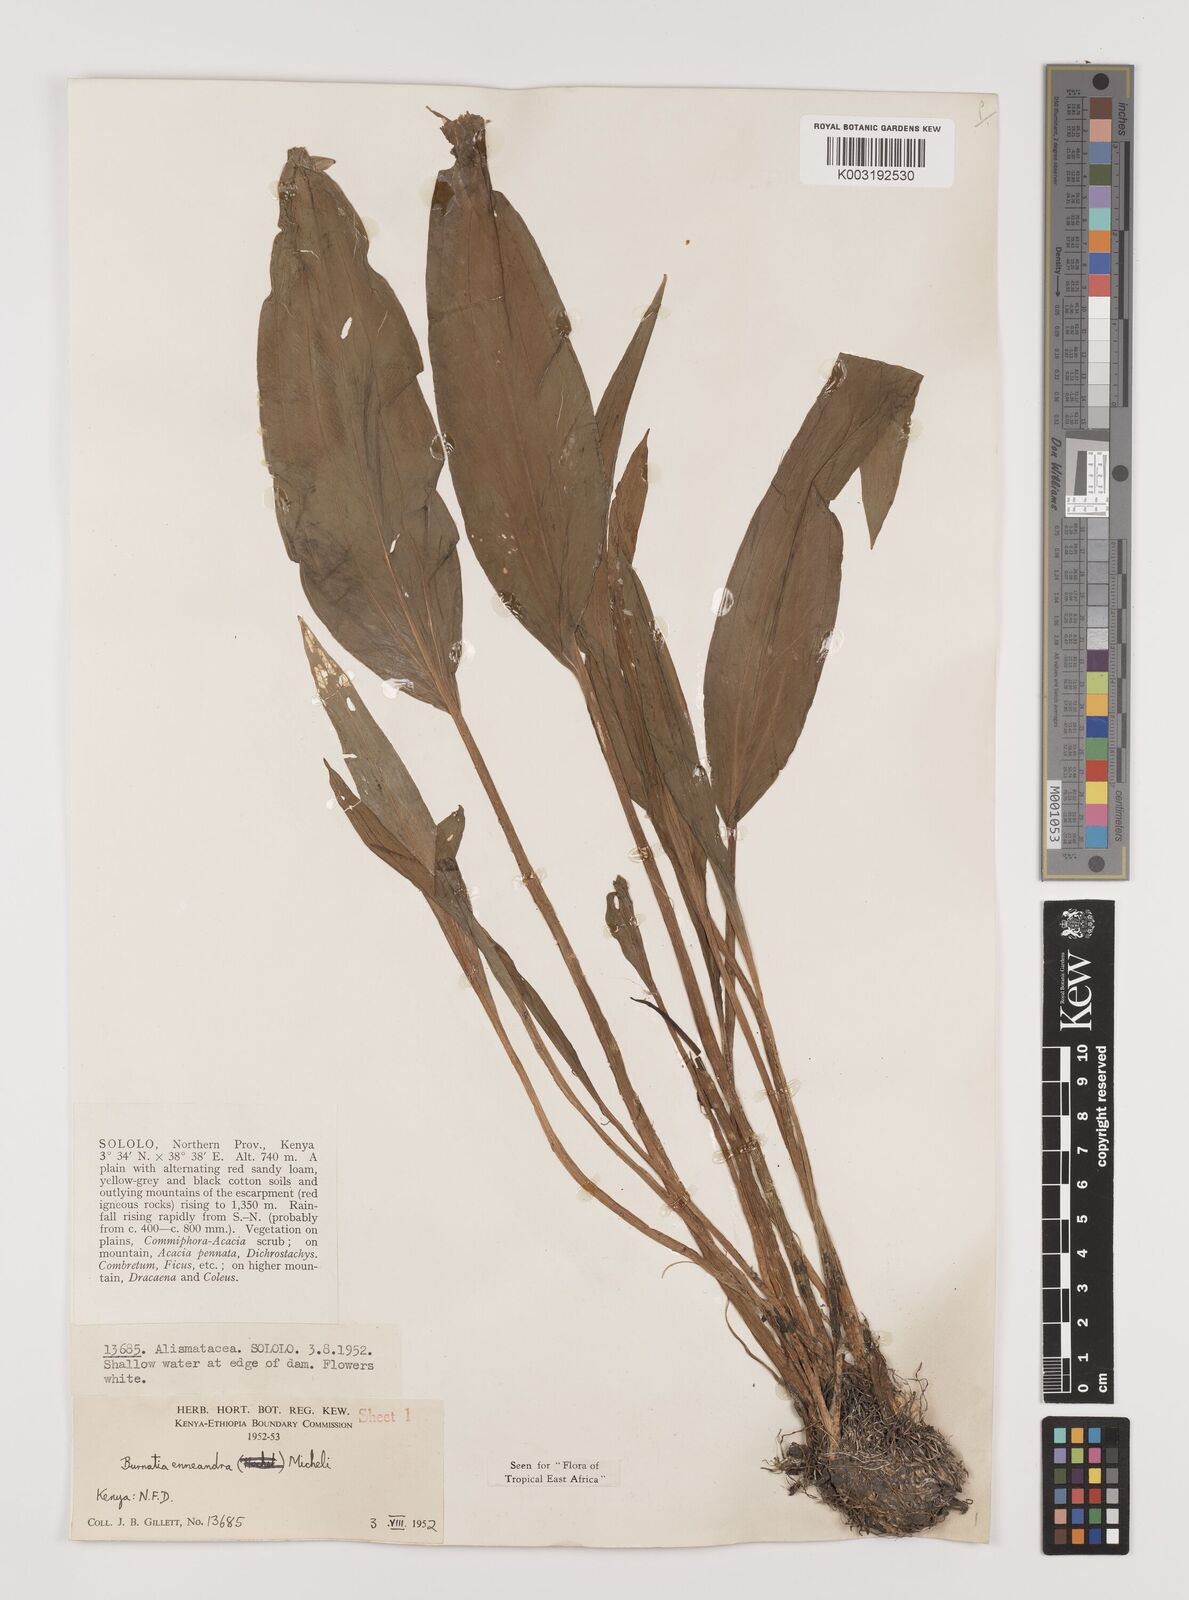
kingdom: Plantae
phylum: Tracheophyta
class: Liliopsida
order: Alismatales
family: Alismataceae
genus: Burnatia
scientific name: Burnatia enneandra
